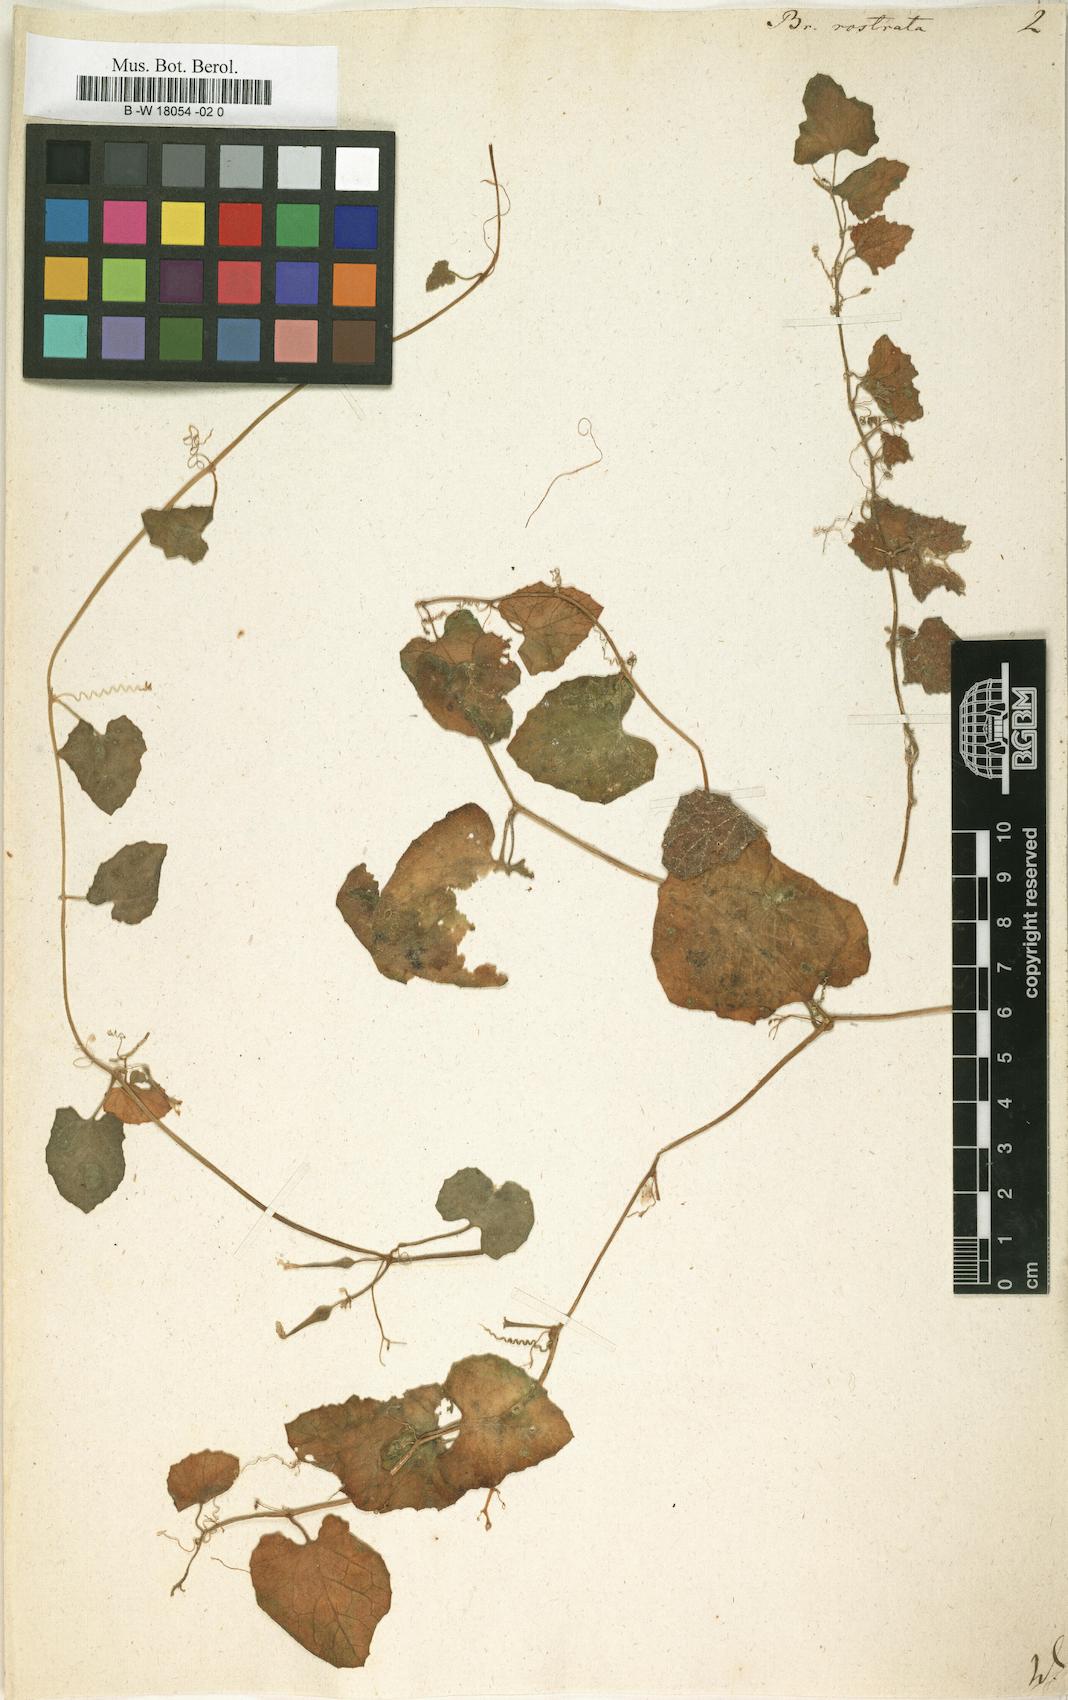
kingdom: Plantae
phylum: Tracheophyta
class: Magnoliopsida
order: Cucurbitales
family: Cucurbitaceae
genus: Kedrostis
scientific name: Kedrostis foetidissima
